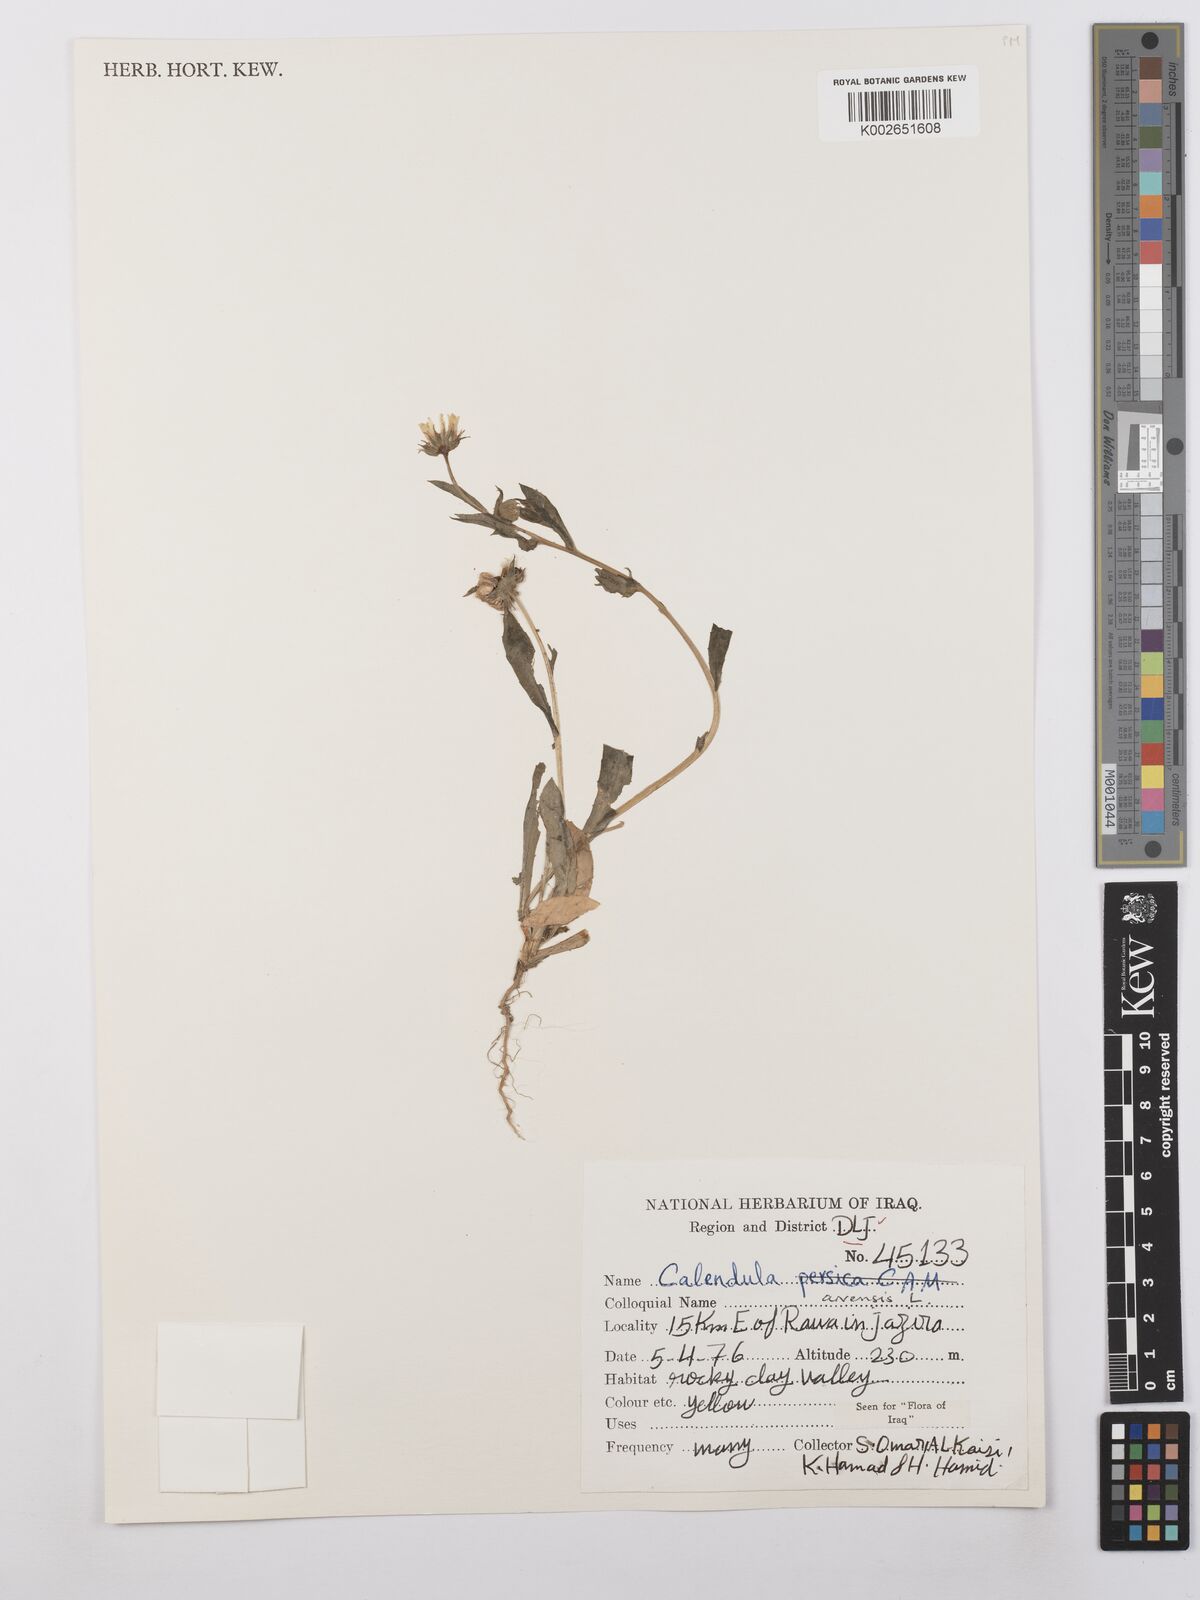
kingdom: Plantae
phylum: Tracheophyta
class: Magnoliopsida
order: Asterales
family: Asteraceae
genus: Calendula
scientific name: Calendula arvensis
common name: Field marigold
